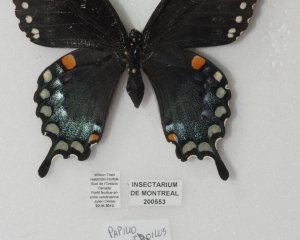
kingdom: Animalia
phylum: Arthropoda
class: Insecta
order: Lepidoptera
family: Papilionidae
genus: Pterourus
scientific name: Pterourus troilus
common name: Spicebush Swallowtail
